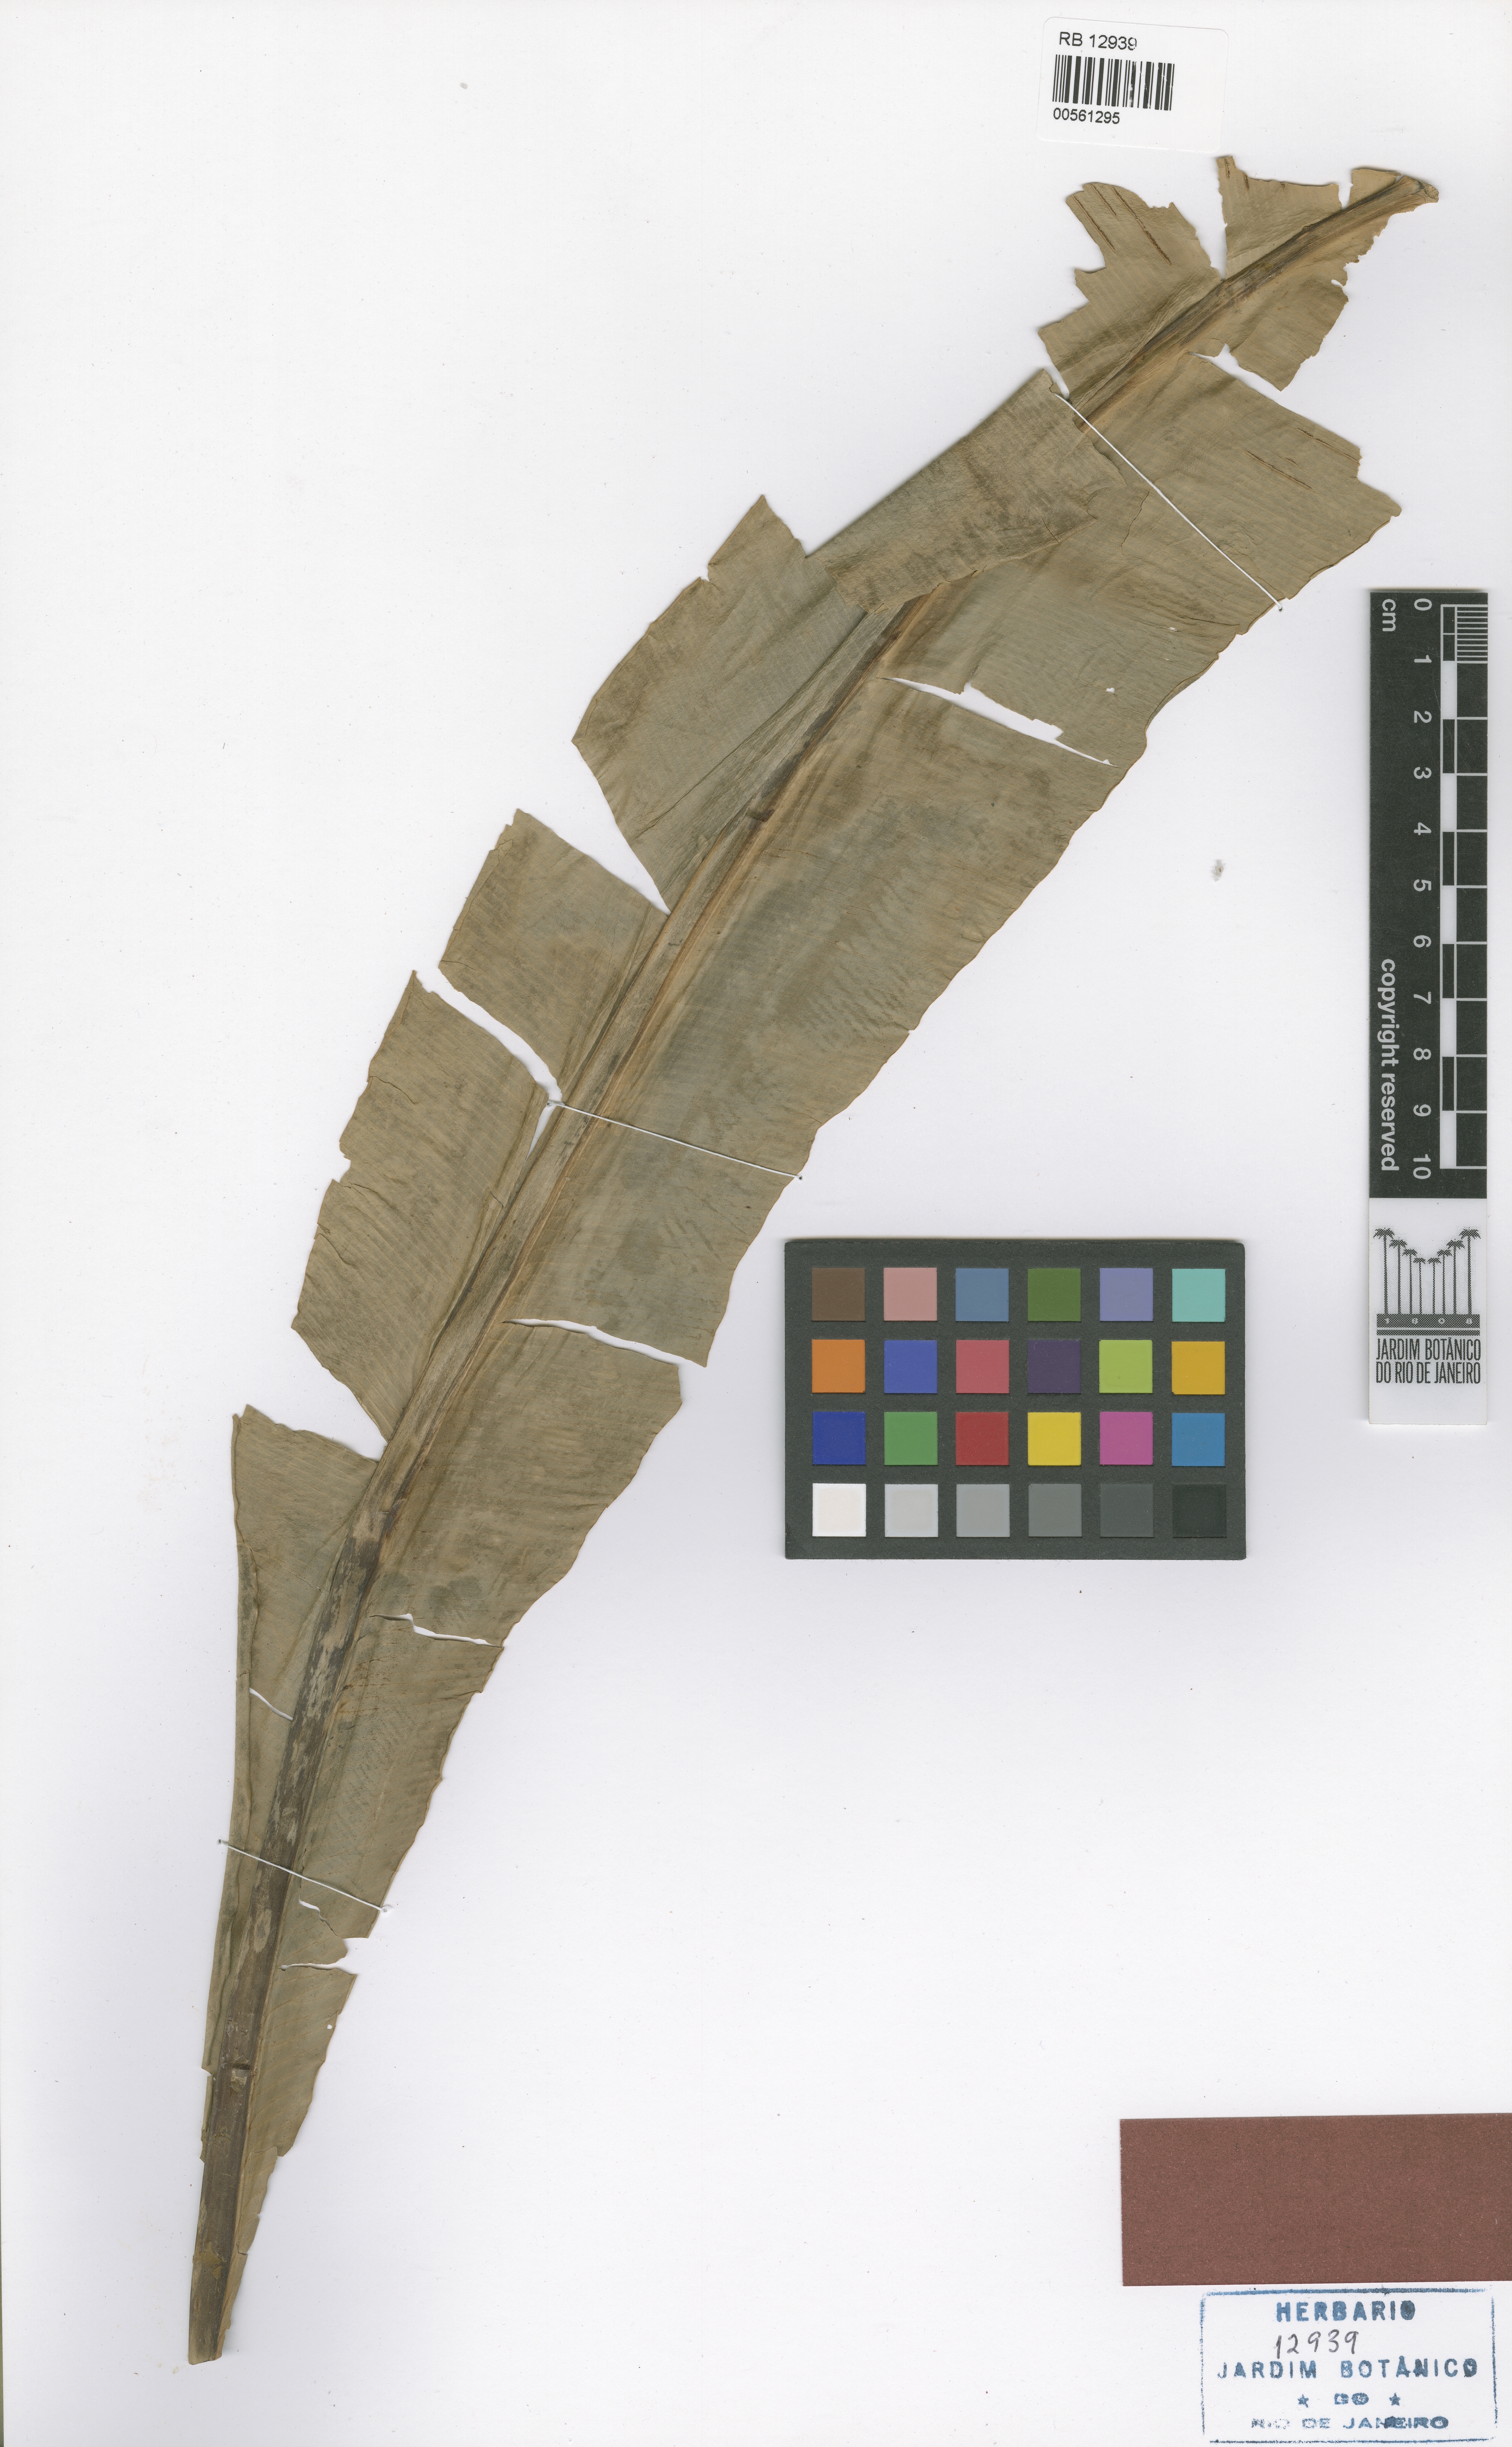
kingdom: Plantae
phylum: Tracheophyta
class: Polypodiopsida
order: Polypodiales
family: Aspleniaceae
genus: Asplenium
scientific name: Asplenium serratum
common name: Wild birdnest fern
